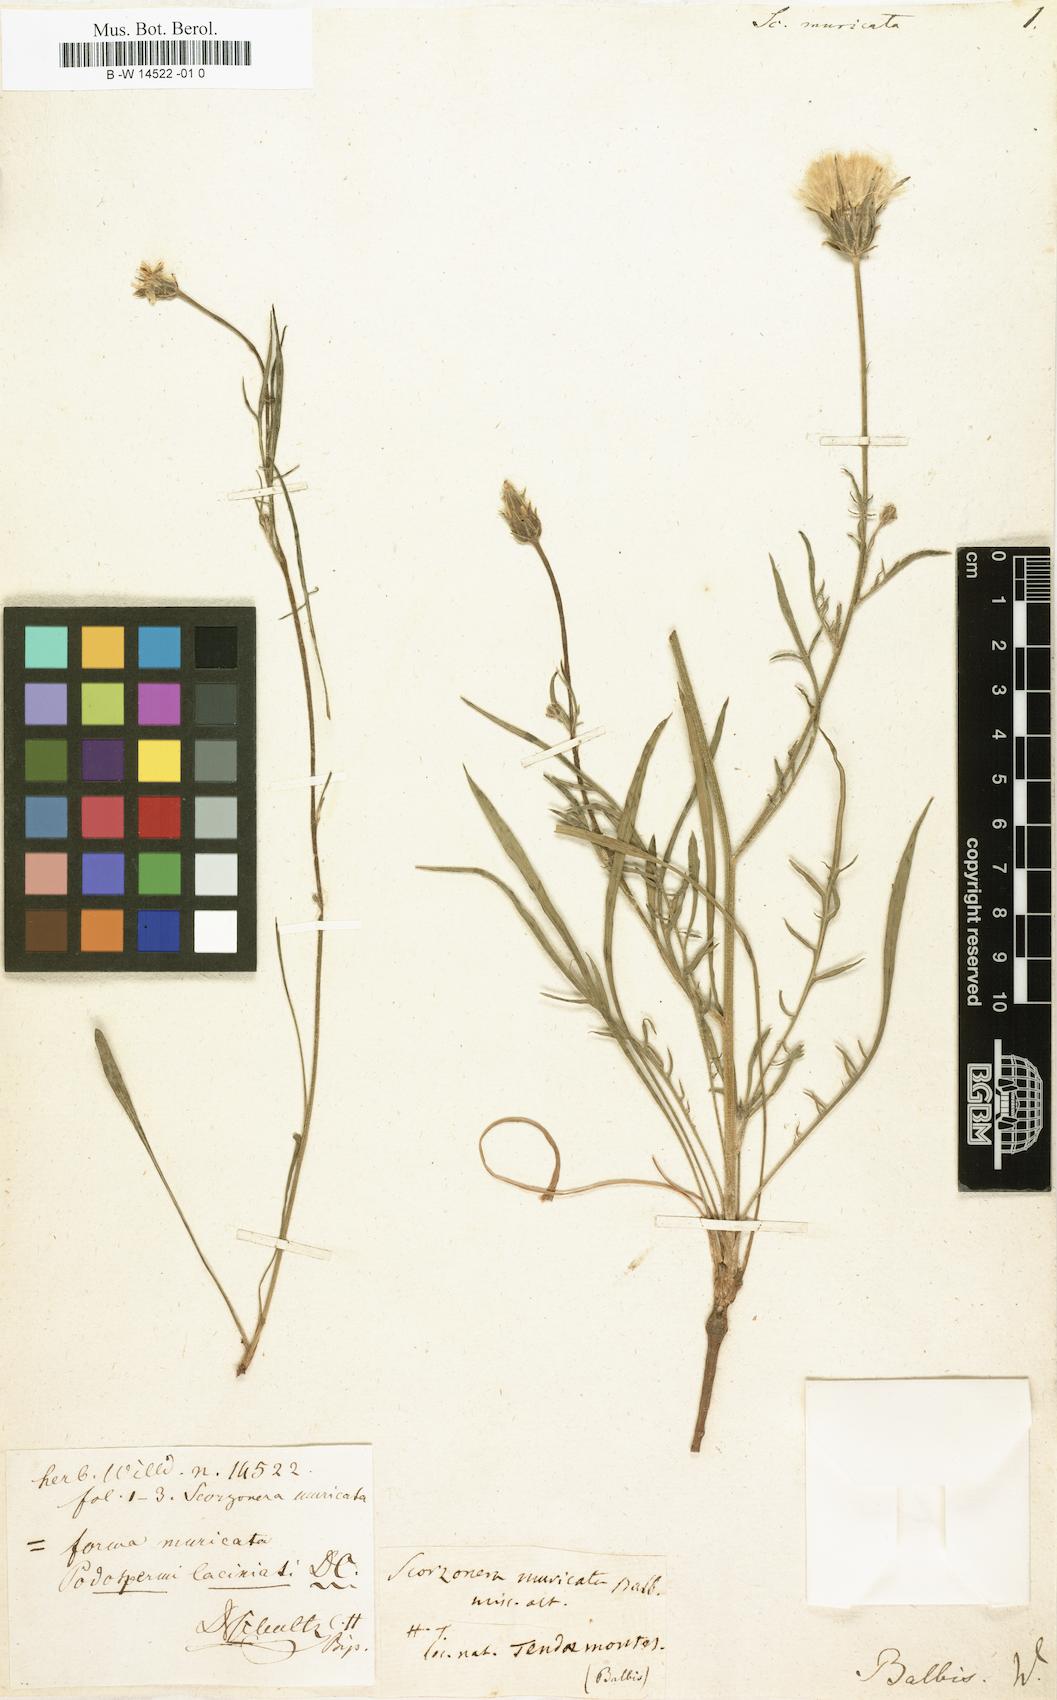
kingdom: Plantae
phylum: Tracheophyta
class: Magnoliopsida
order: Asterales
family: Asteraceae
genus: Scorzonera
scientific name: Scorzonera laciniata
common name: Cutleaf vipergrass
